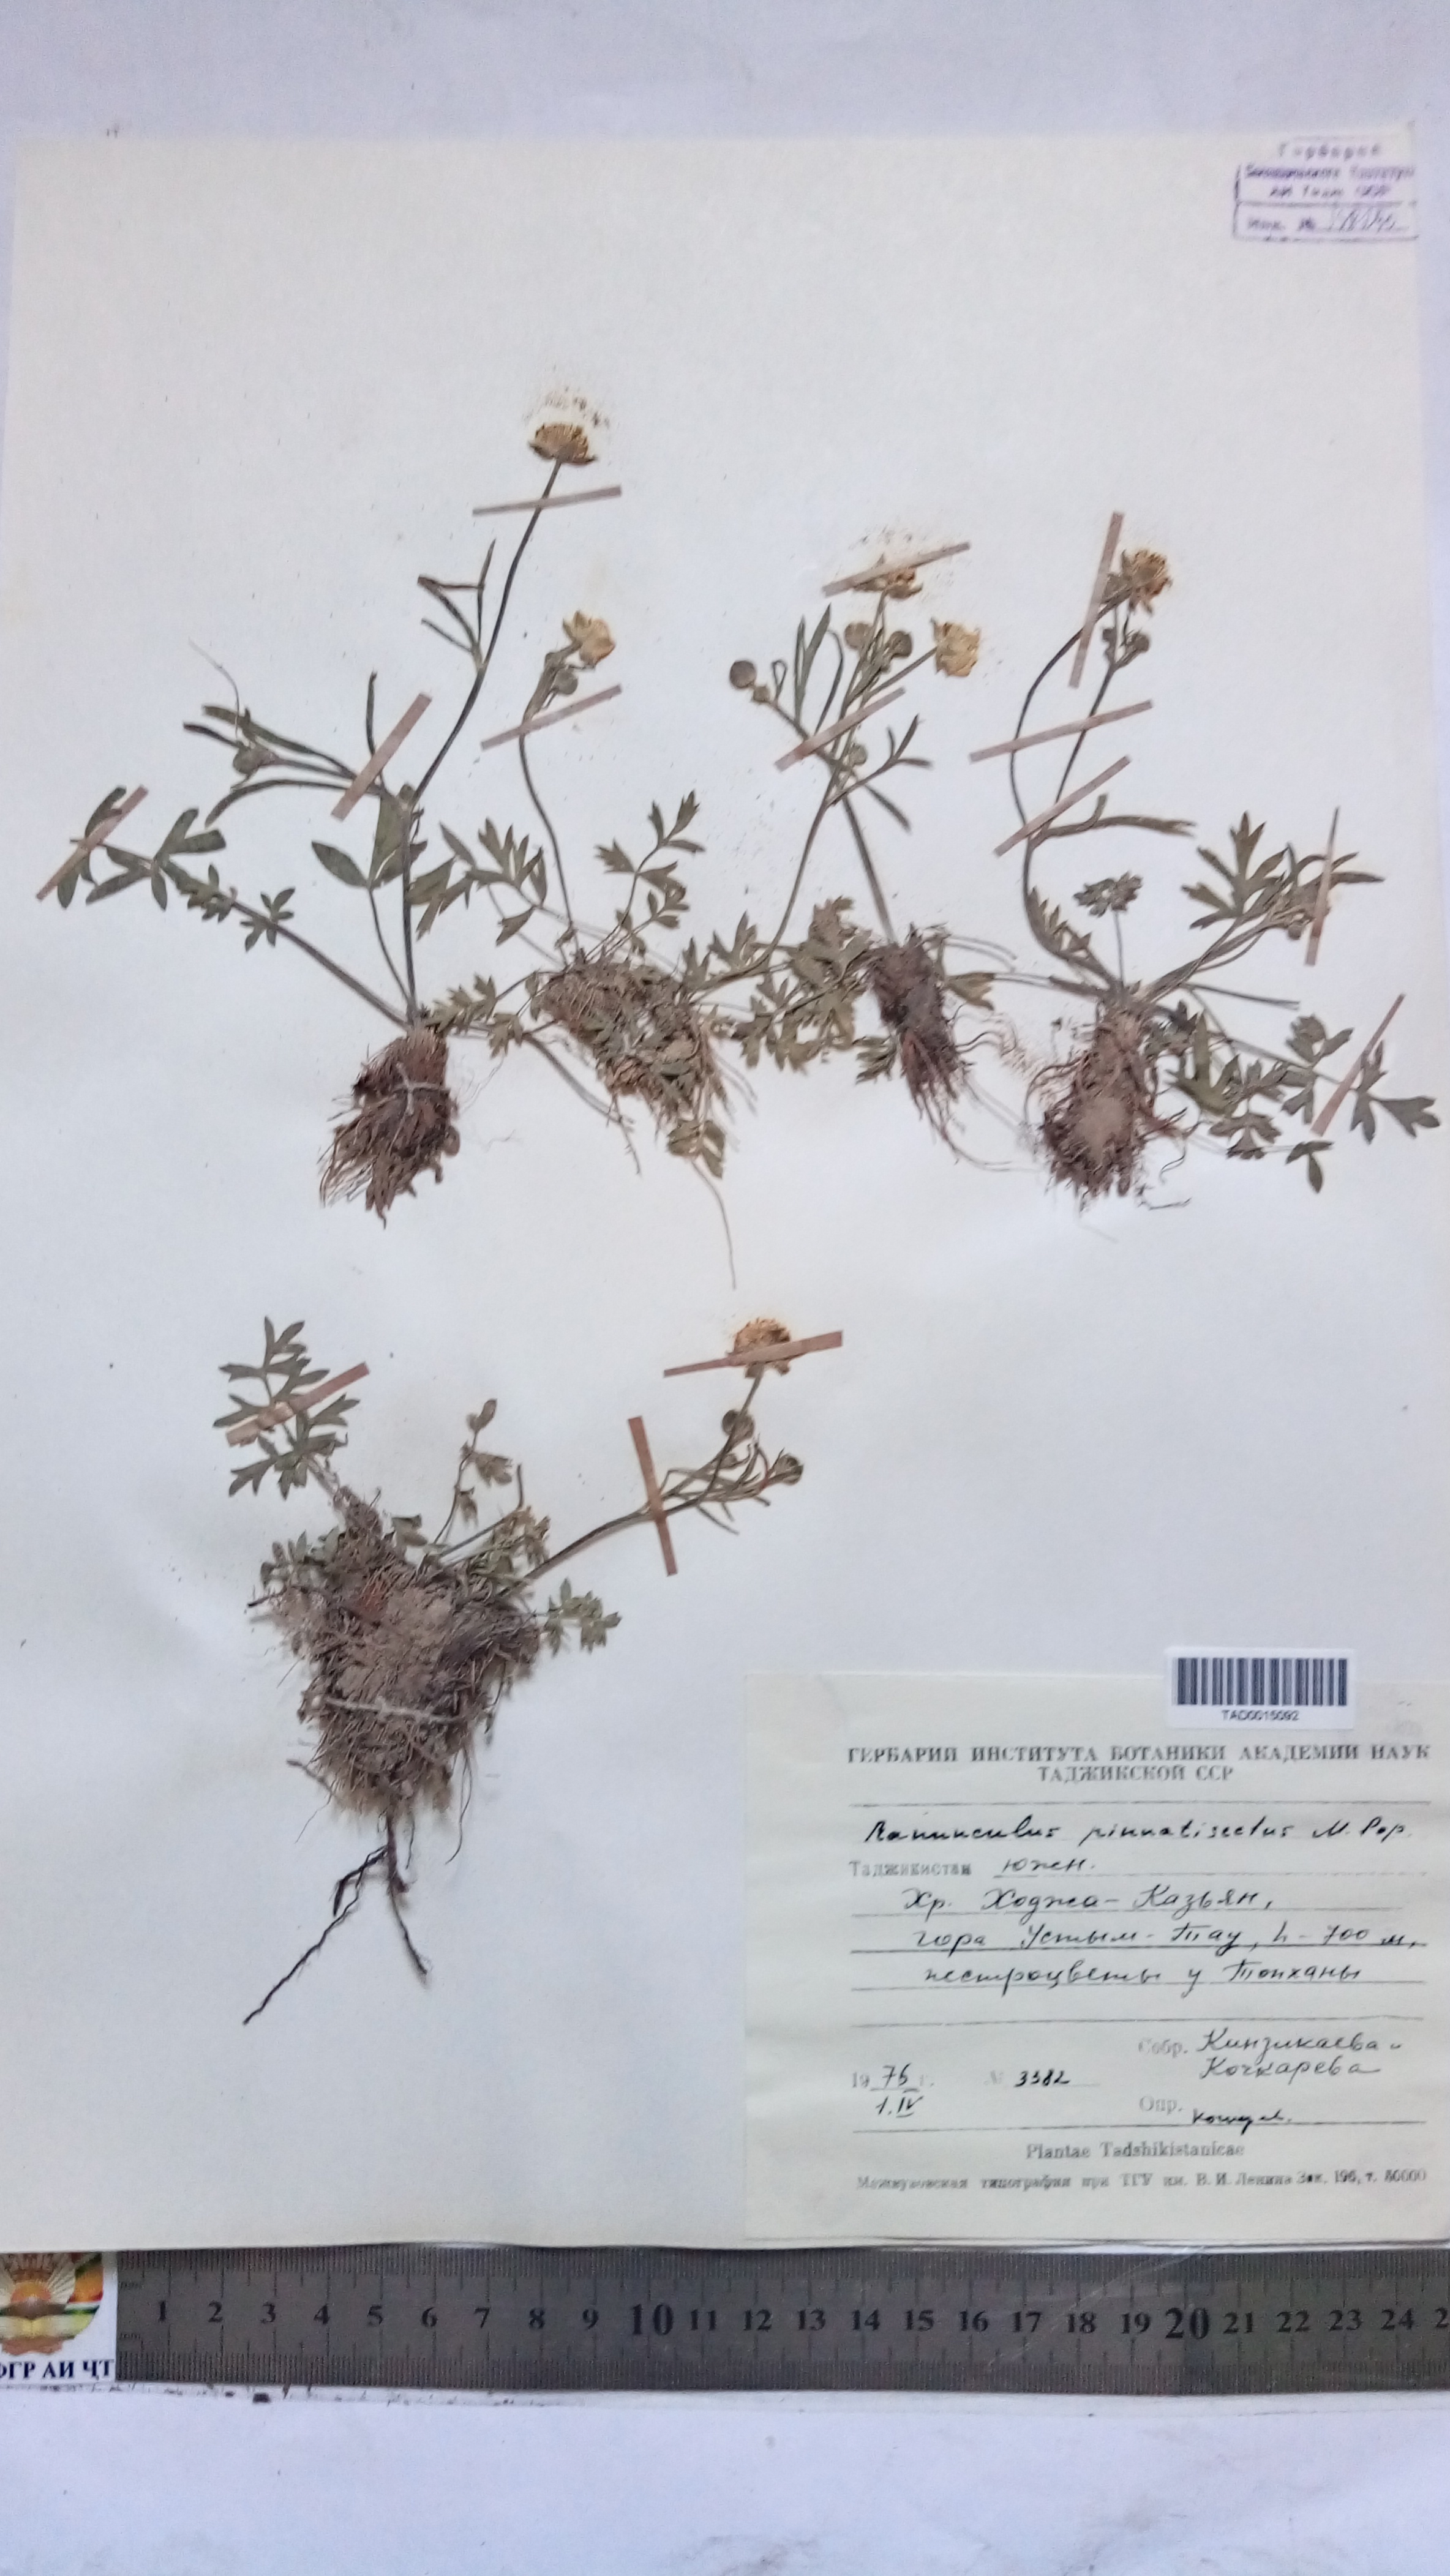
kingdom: Plantae
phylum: Tracheophyta
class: Magnoliopsida
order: Ranunculales
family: Ranunculaceae
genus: Ranunculus
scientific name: Ranunculus pinnatisectus
